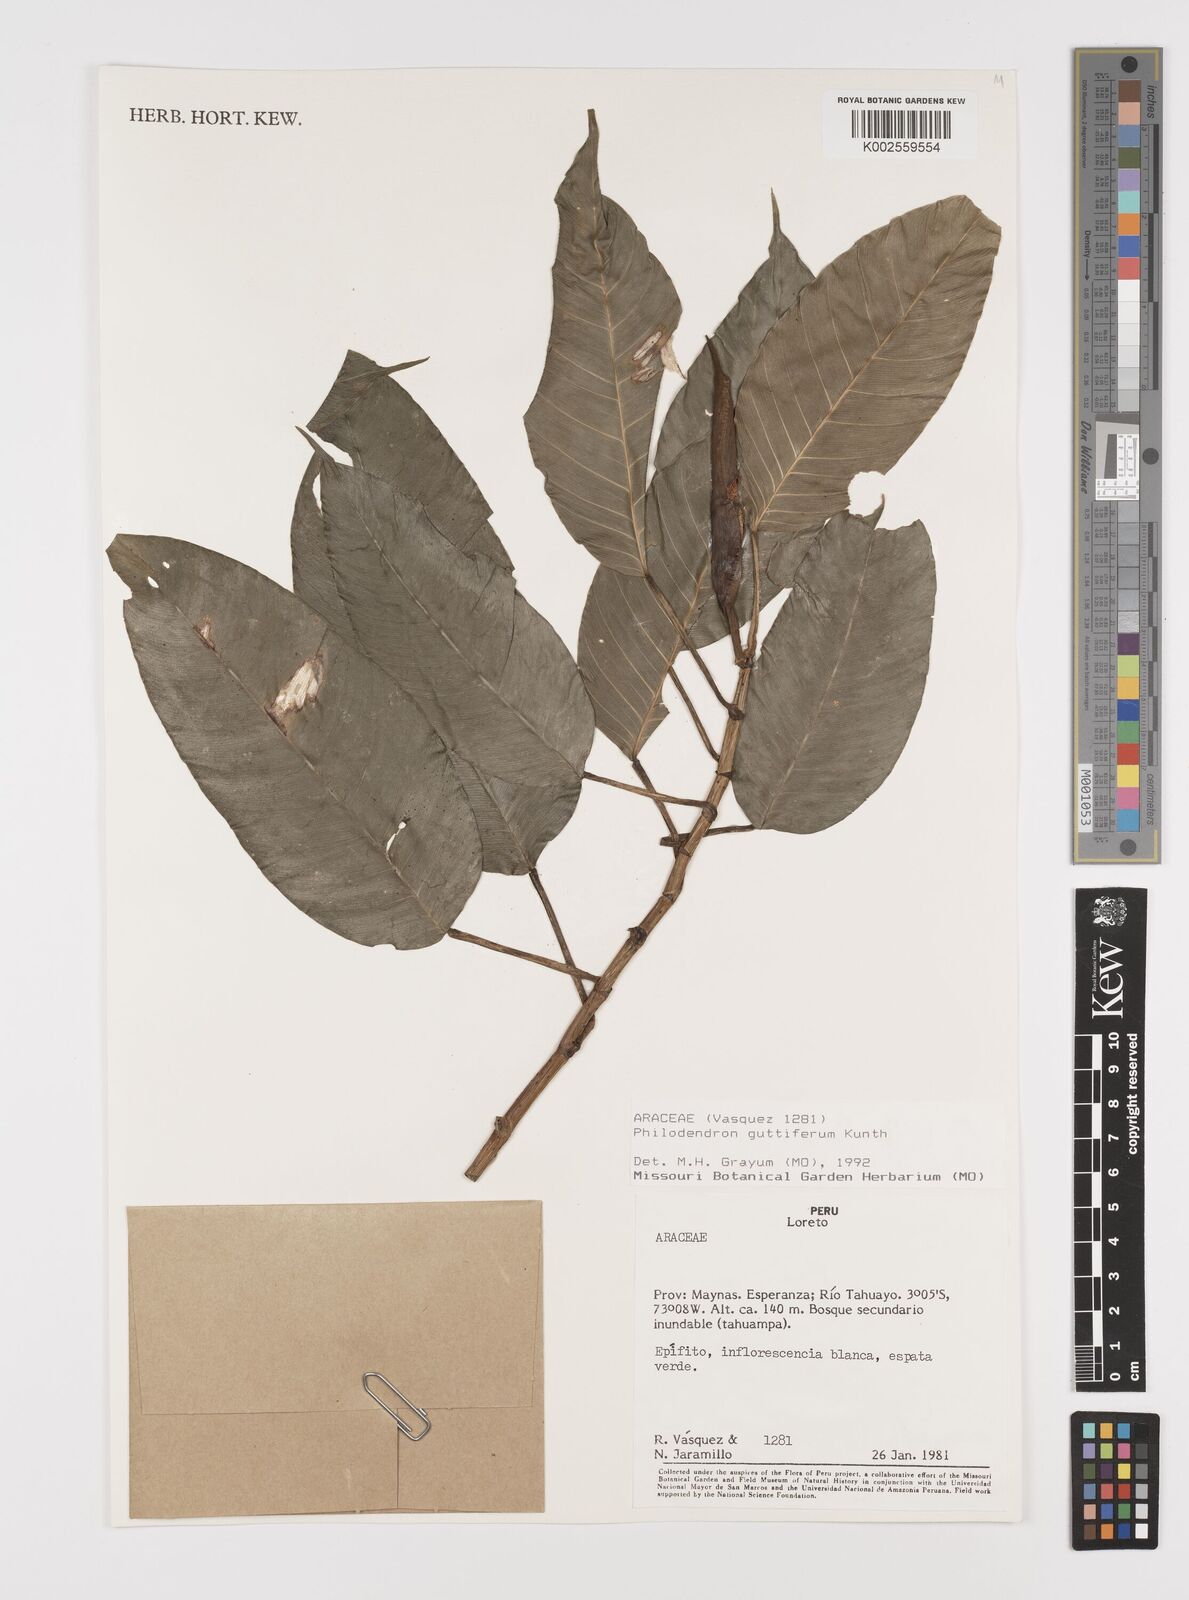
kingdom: Plantae
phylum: Tracheophyta
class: Liliopsida
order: Alismatales
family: Araceae
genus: Philodendron
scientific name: Philodendron guttiferum
